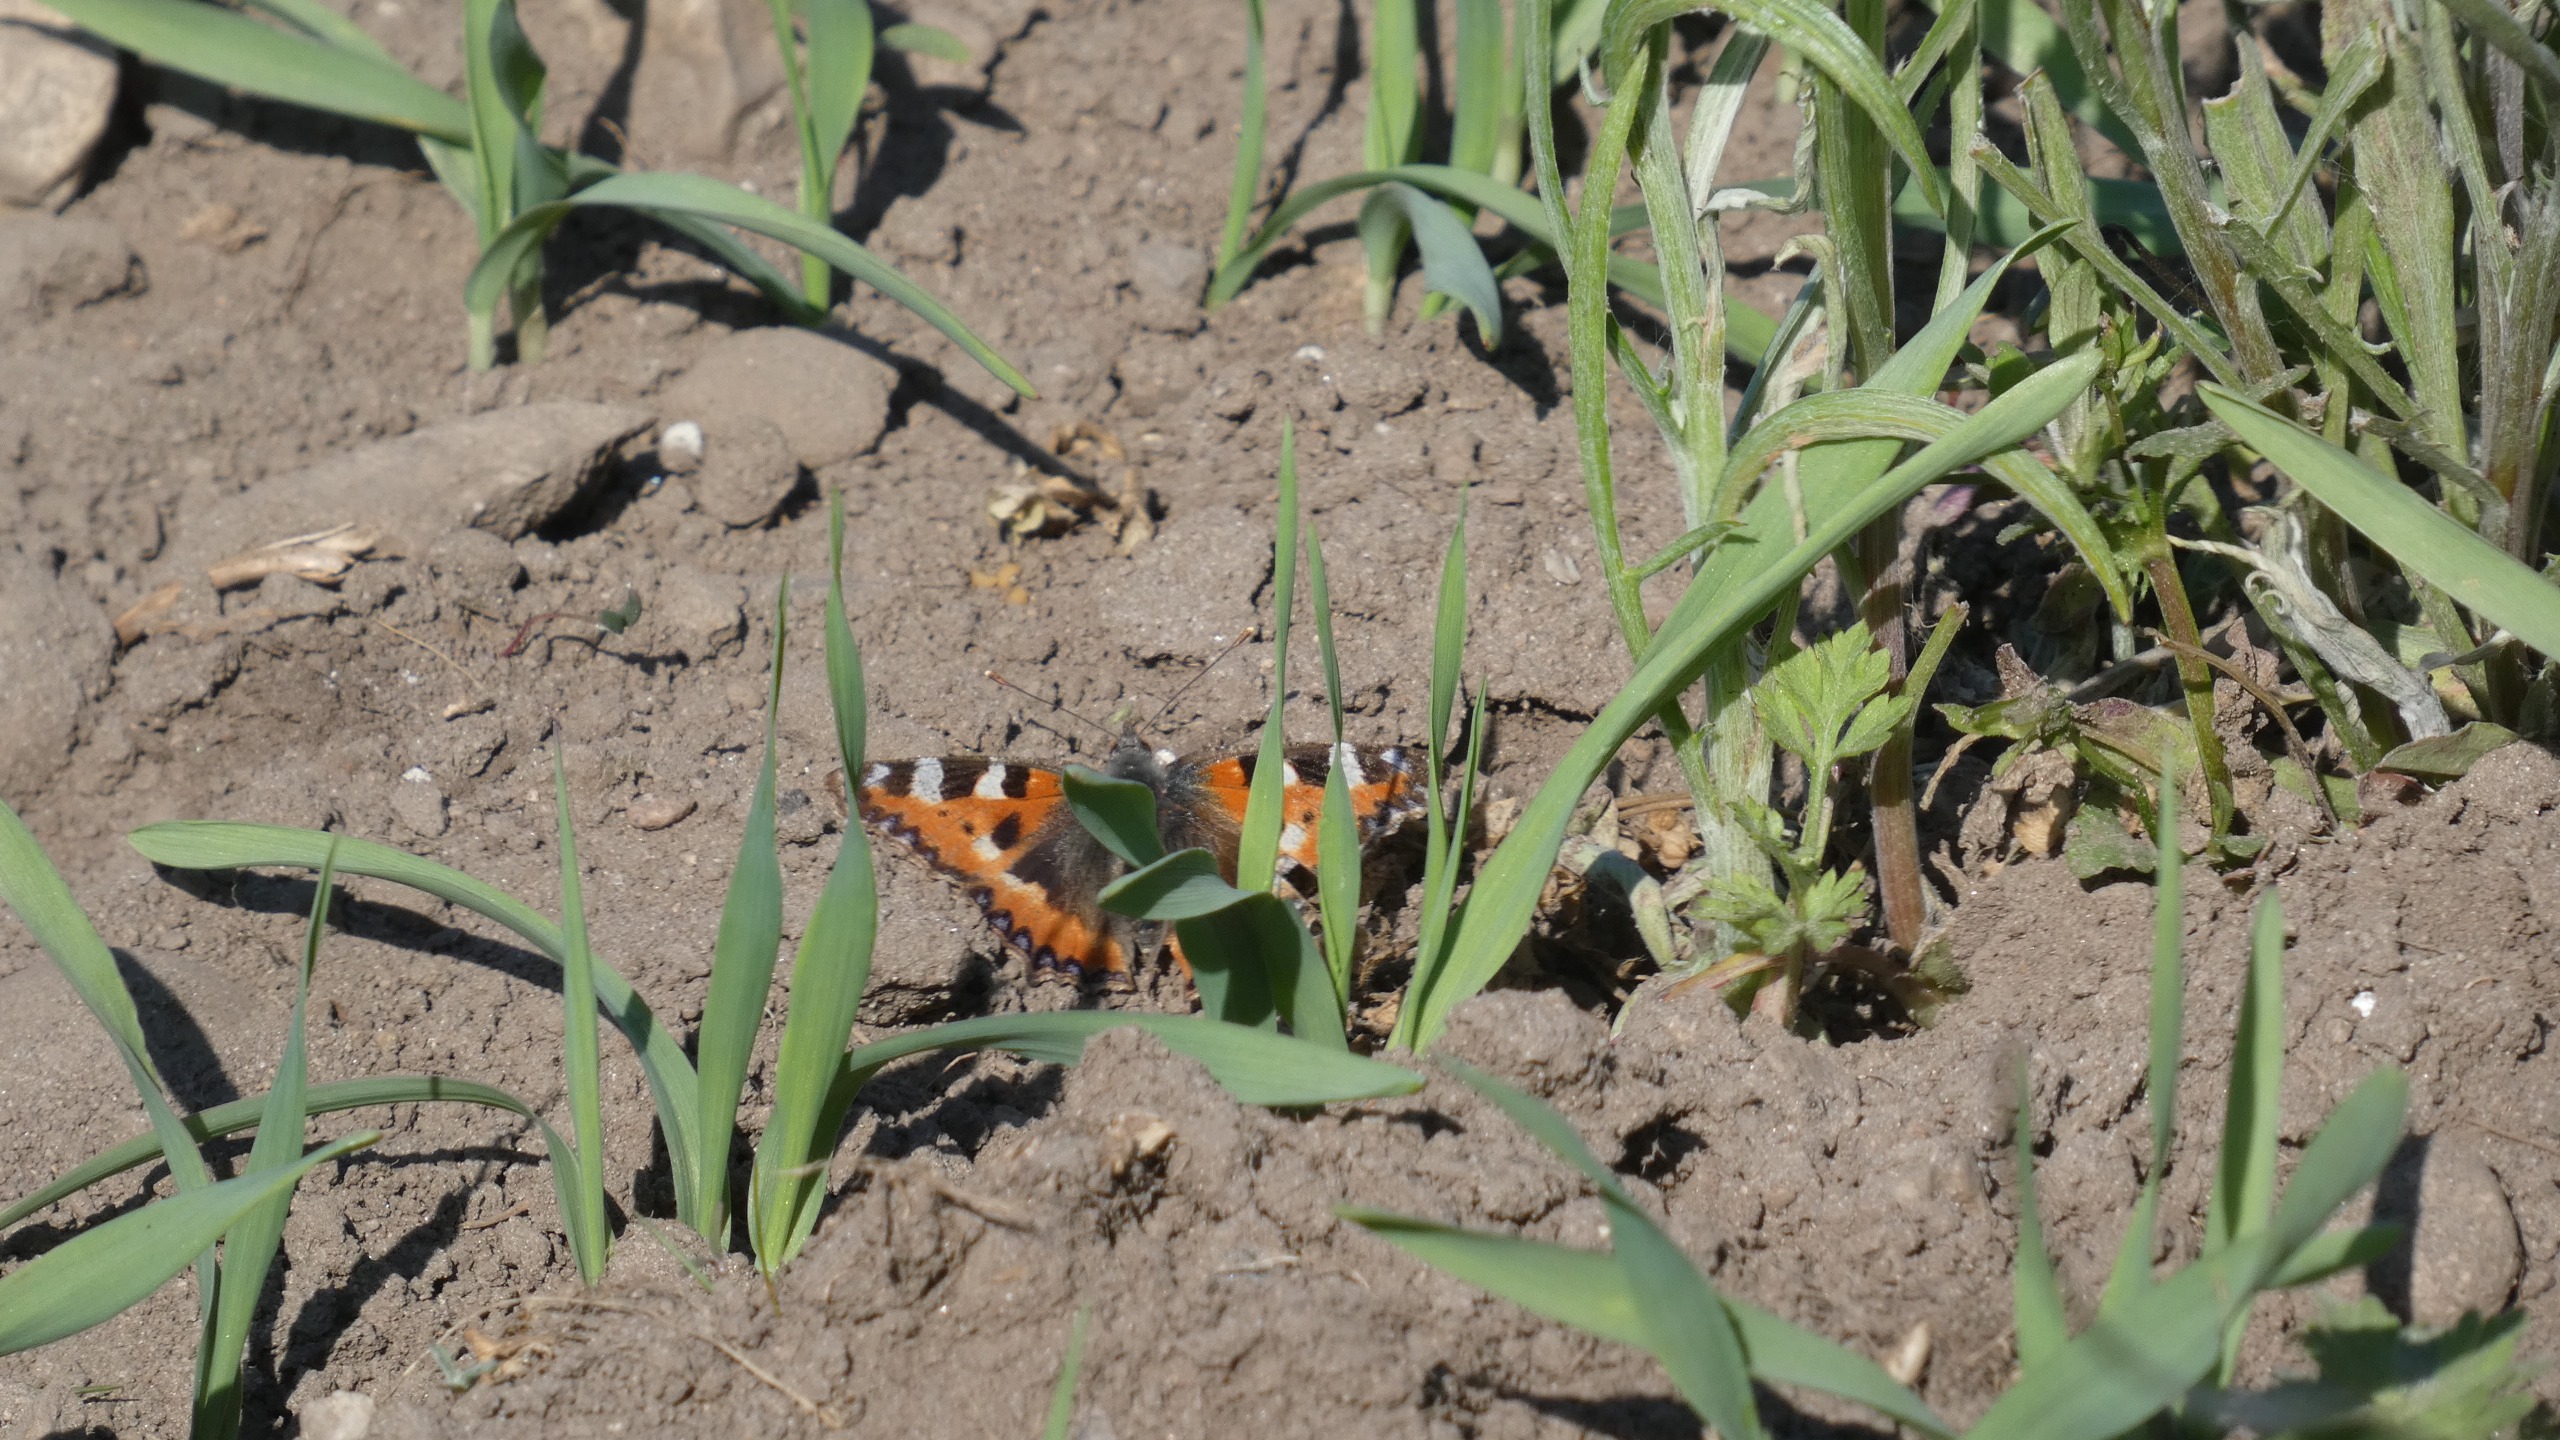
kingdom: Animalia
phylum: Arthropoda
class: Insecta
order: Lepidoptera
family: Nymphalidae
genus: Aglais
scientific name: Aglais urticae
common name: Nældens takvinge
